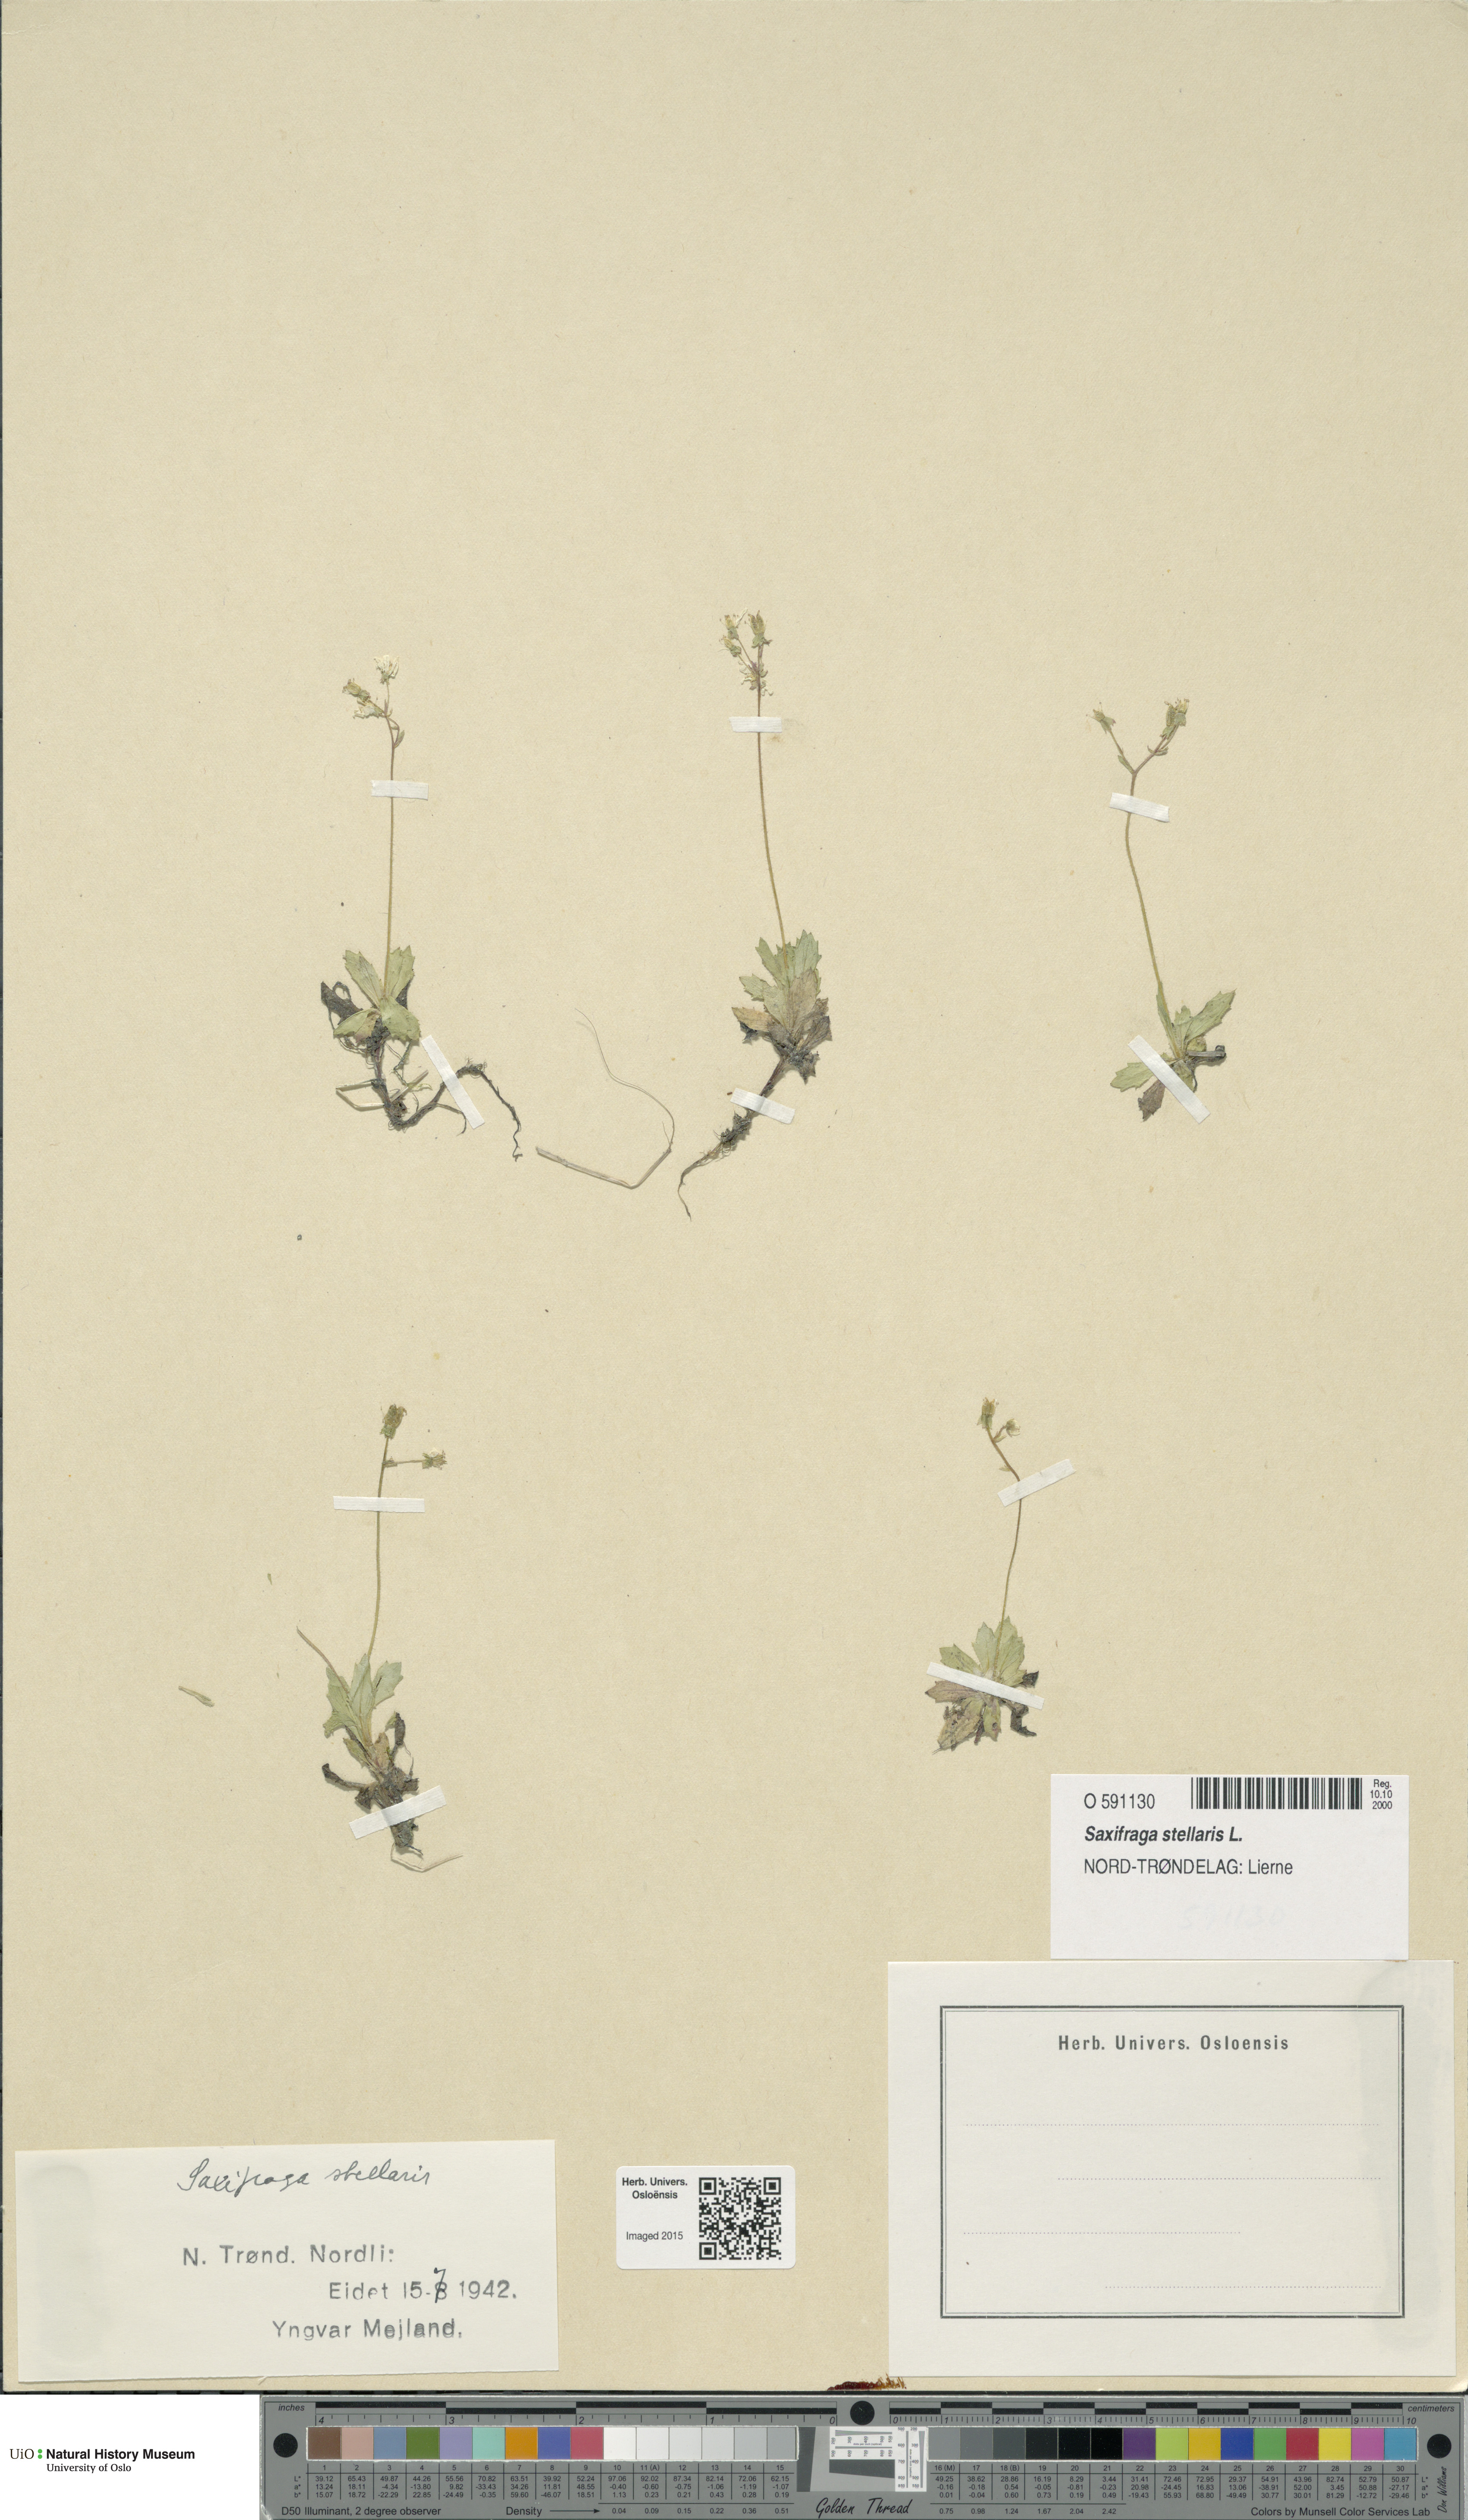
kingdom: Plantae
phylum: Tracheophyta
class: Magnoliopsida
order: Saxifragales
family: Saxifragaceae
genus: Micranthes
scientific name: Micranthes stellaris
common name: Starry saxifrage
